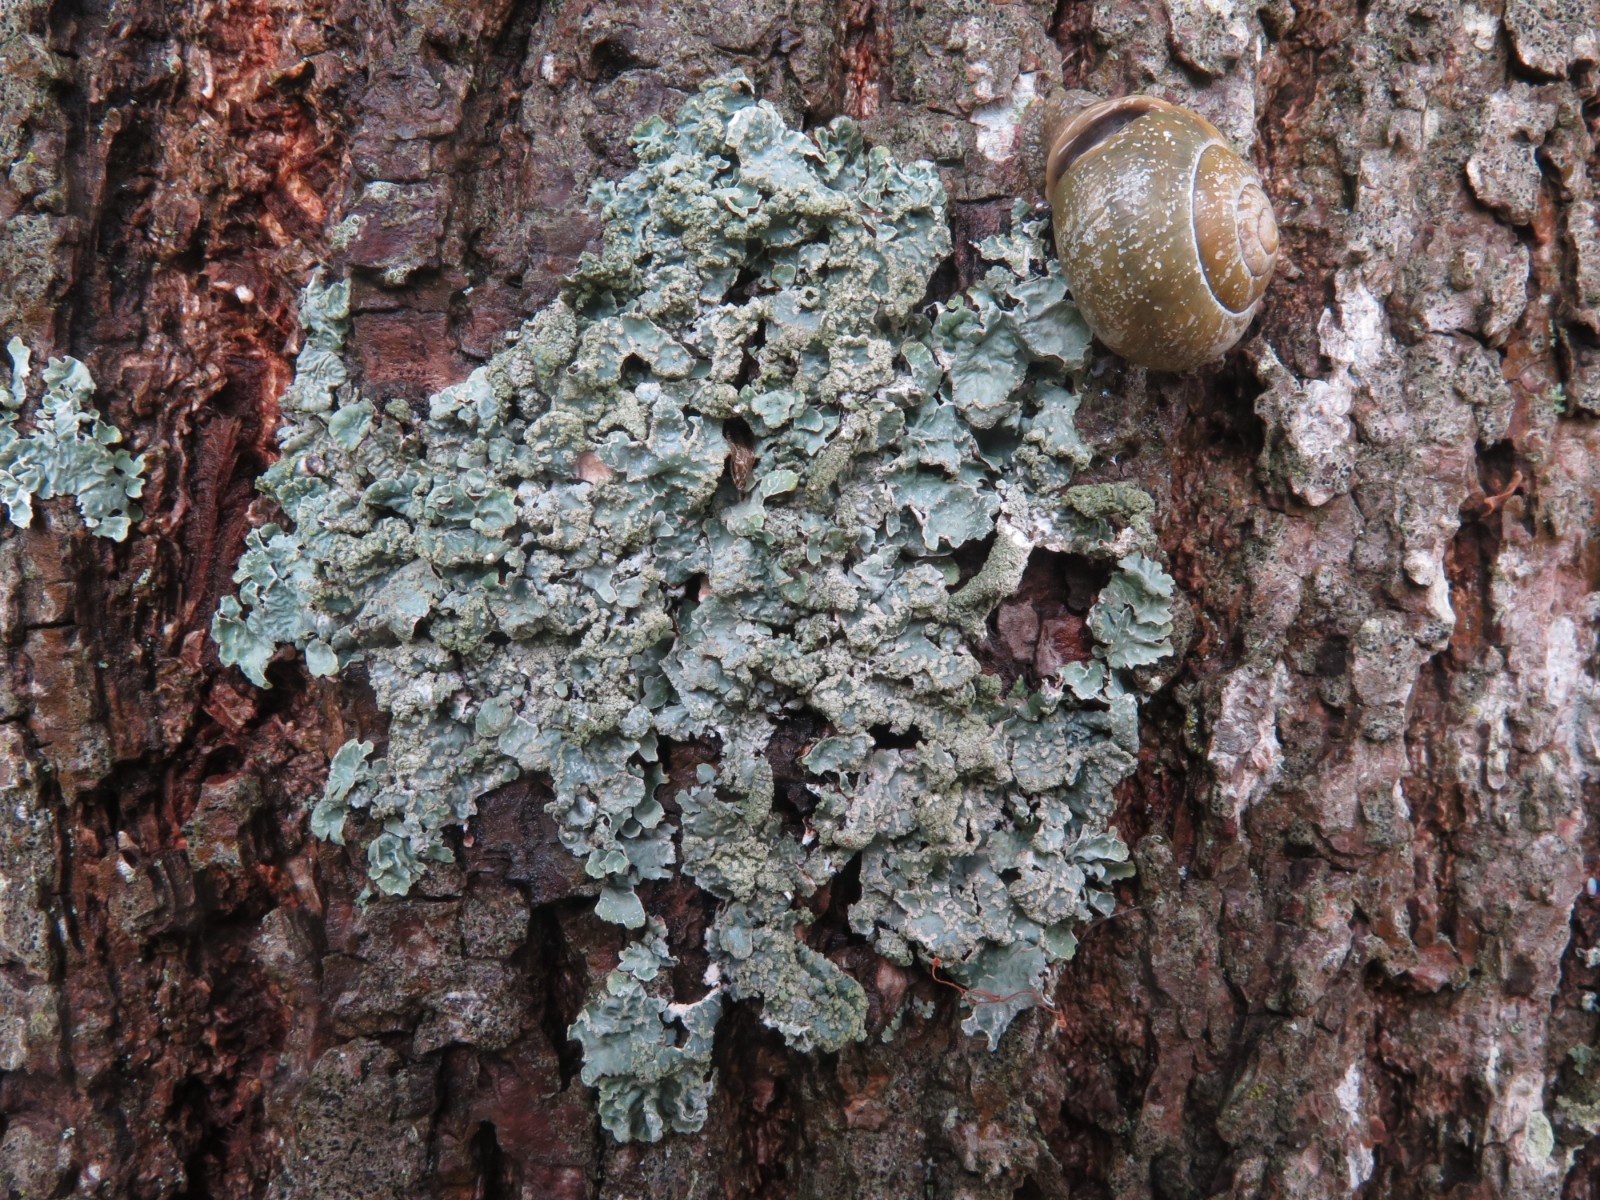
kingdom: Fungi
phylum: Ascomycota
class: Lecanoromycetes
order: Lecanorales
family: Parmeliaceae
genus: Parmelia
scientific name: Parmelia sulcata
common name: rynket skållav
